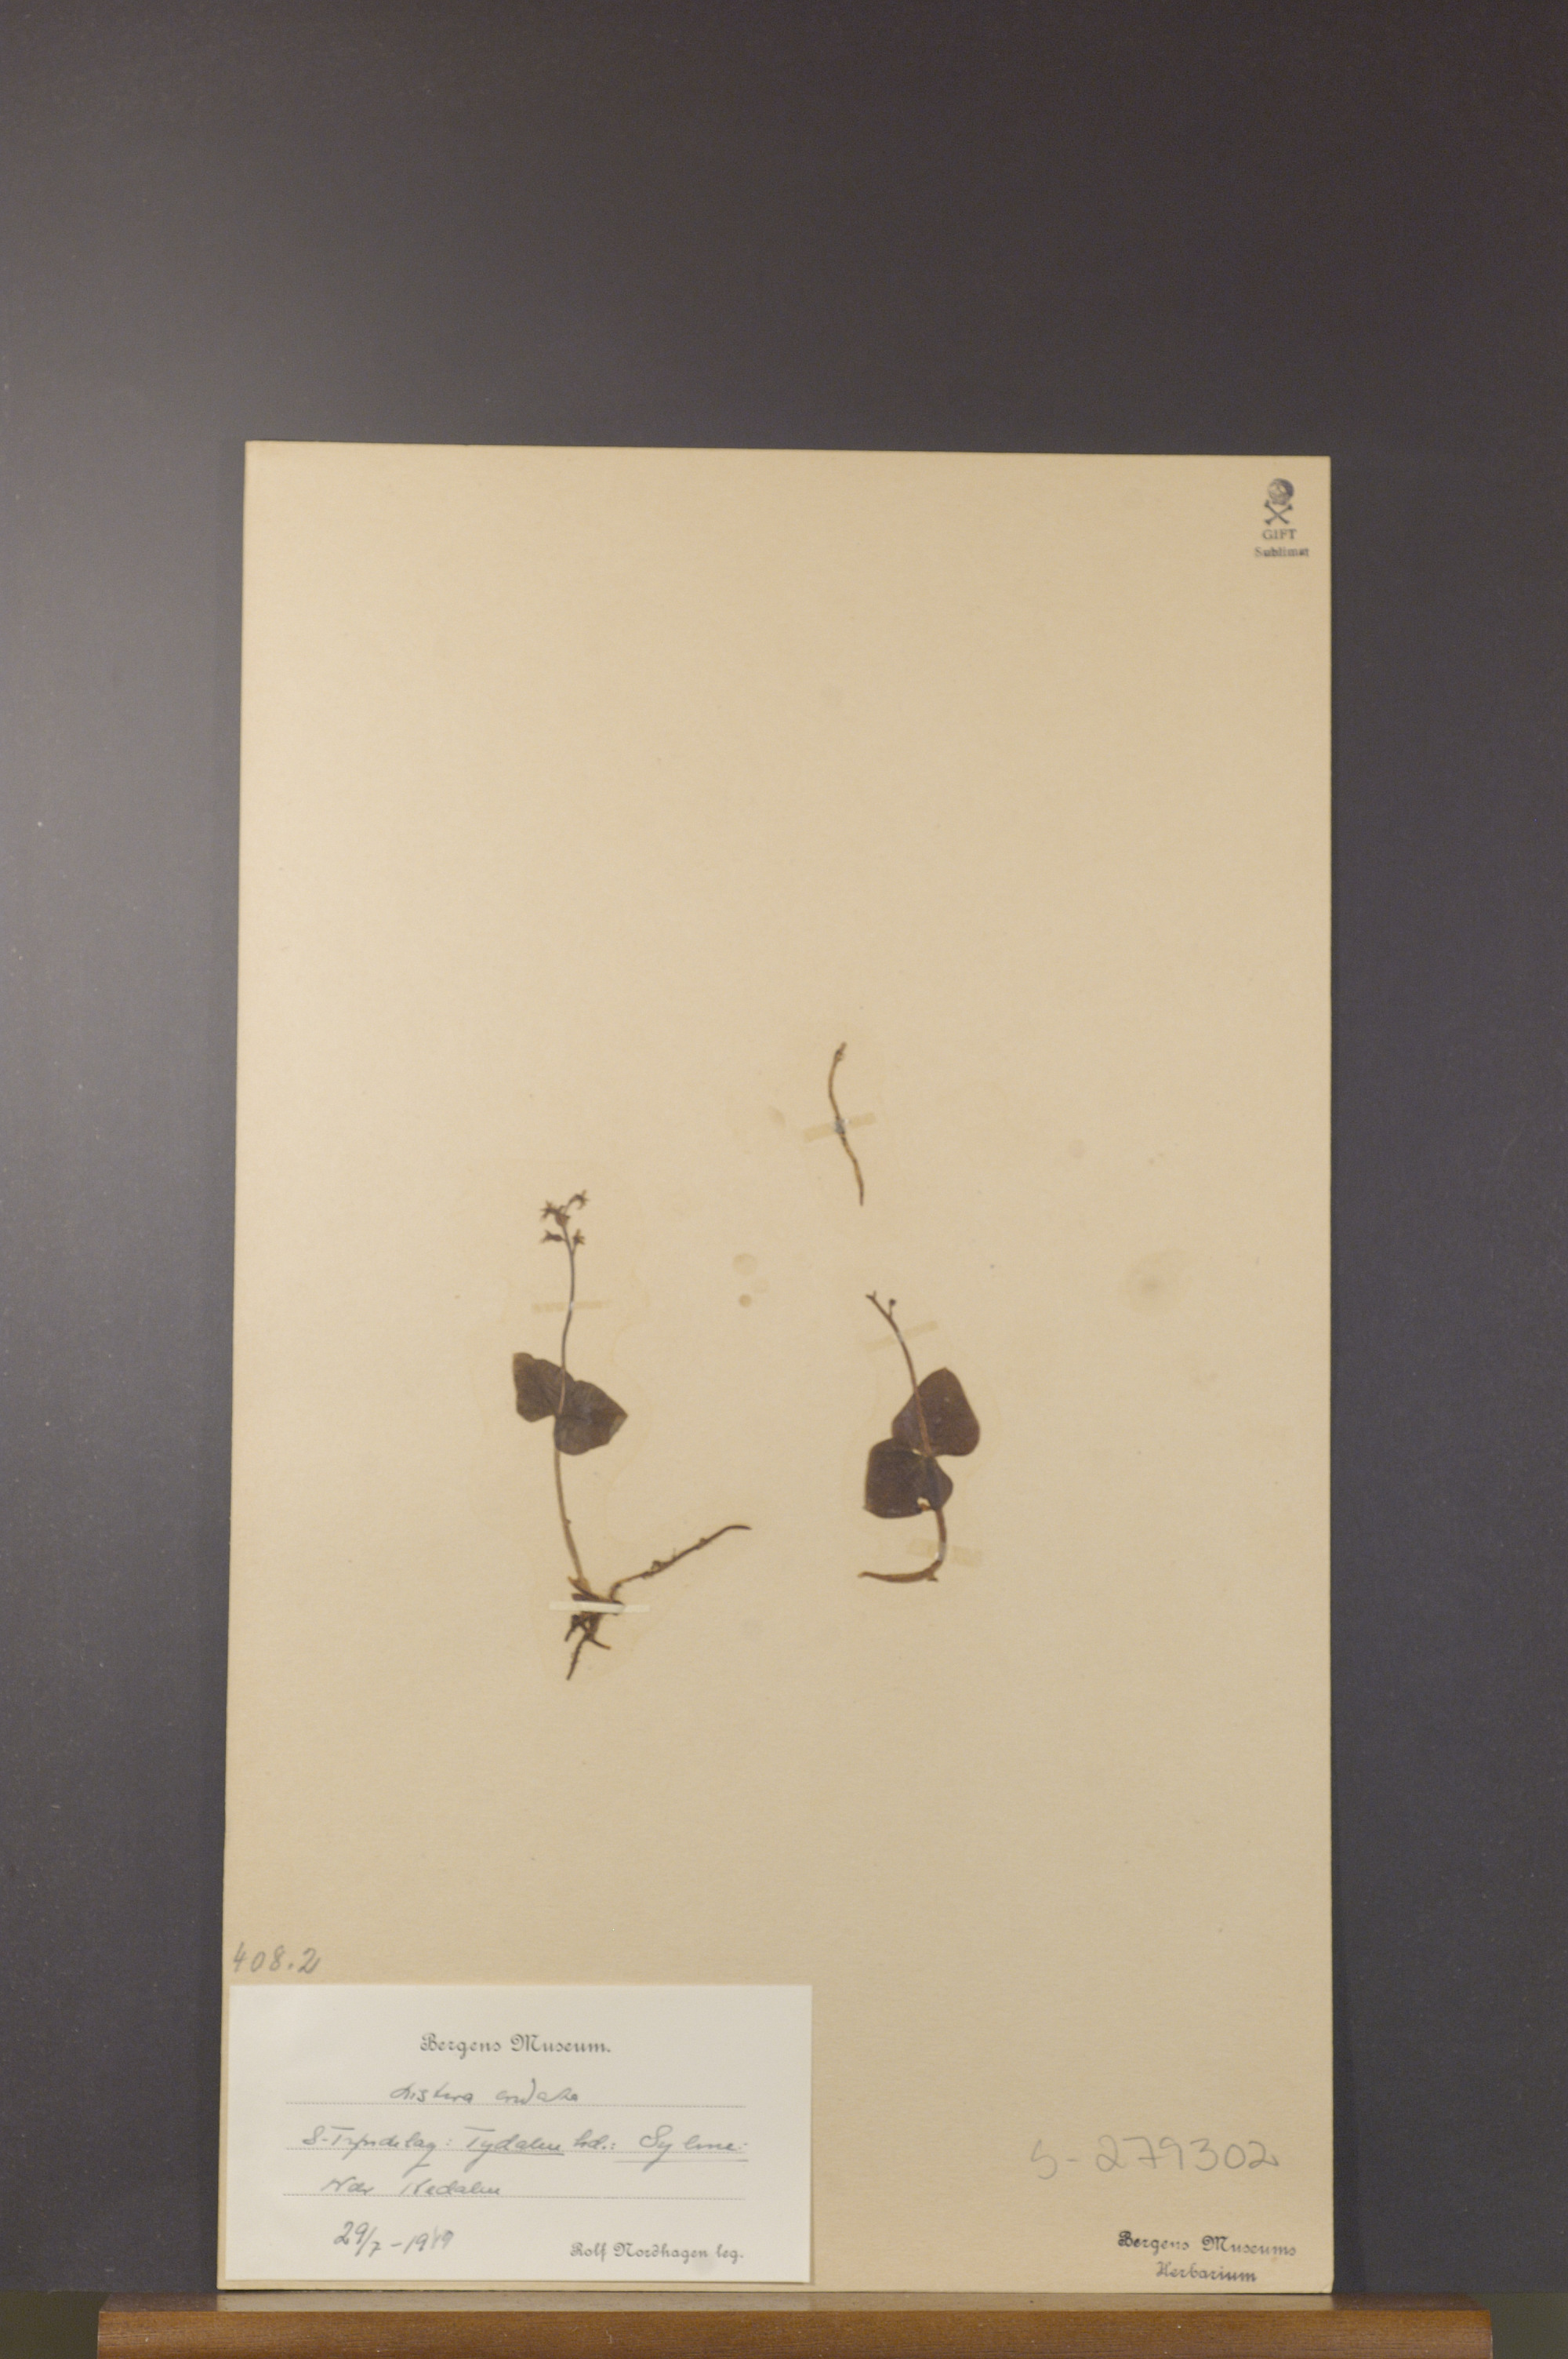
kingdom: Plantae
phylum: Tracheophyta
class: Liliopsida
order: Asparagales
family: Orchidaceae
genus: Neottia
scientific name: Neottia cordata
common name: Lesser twayblade
